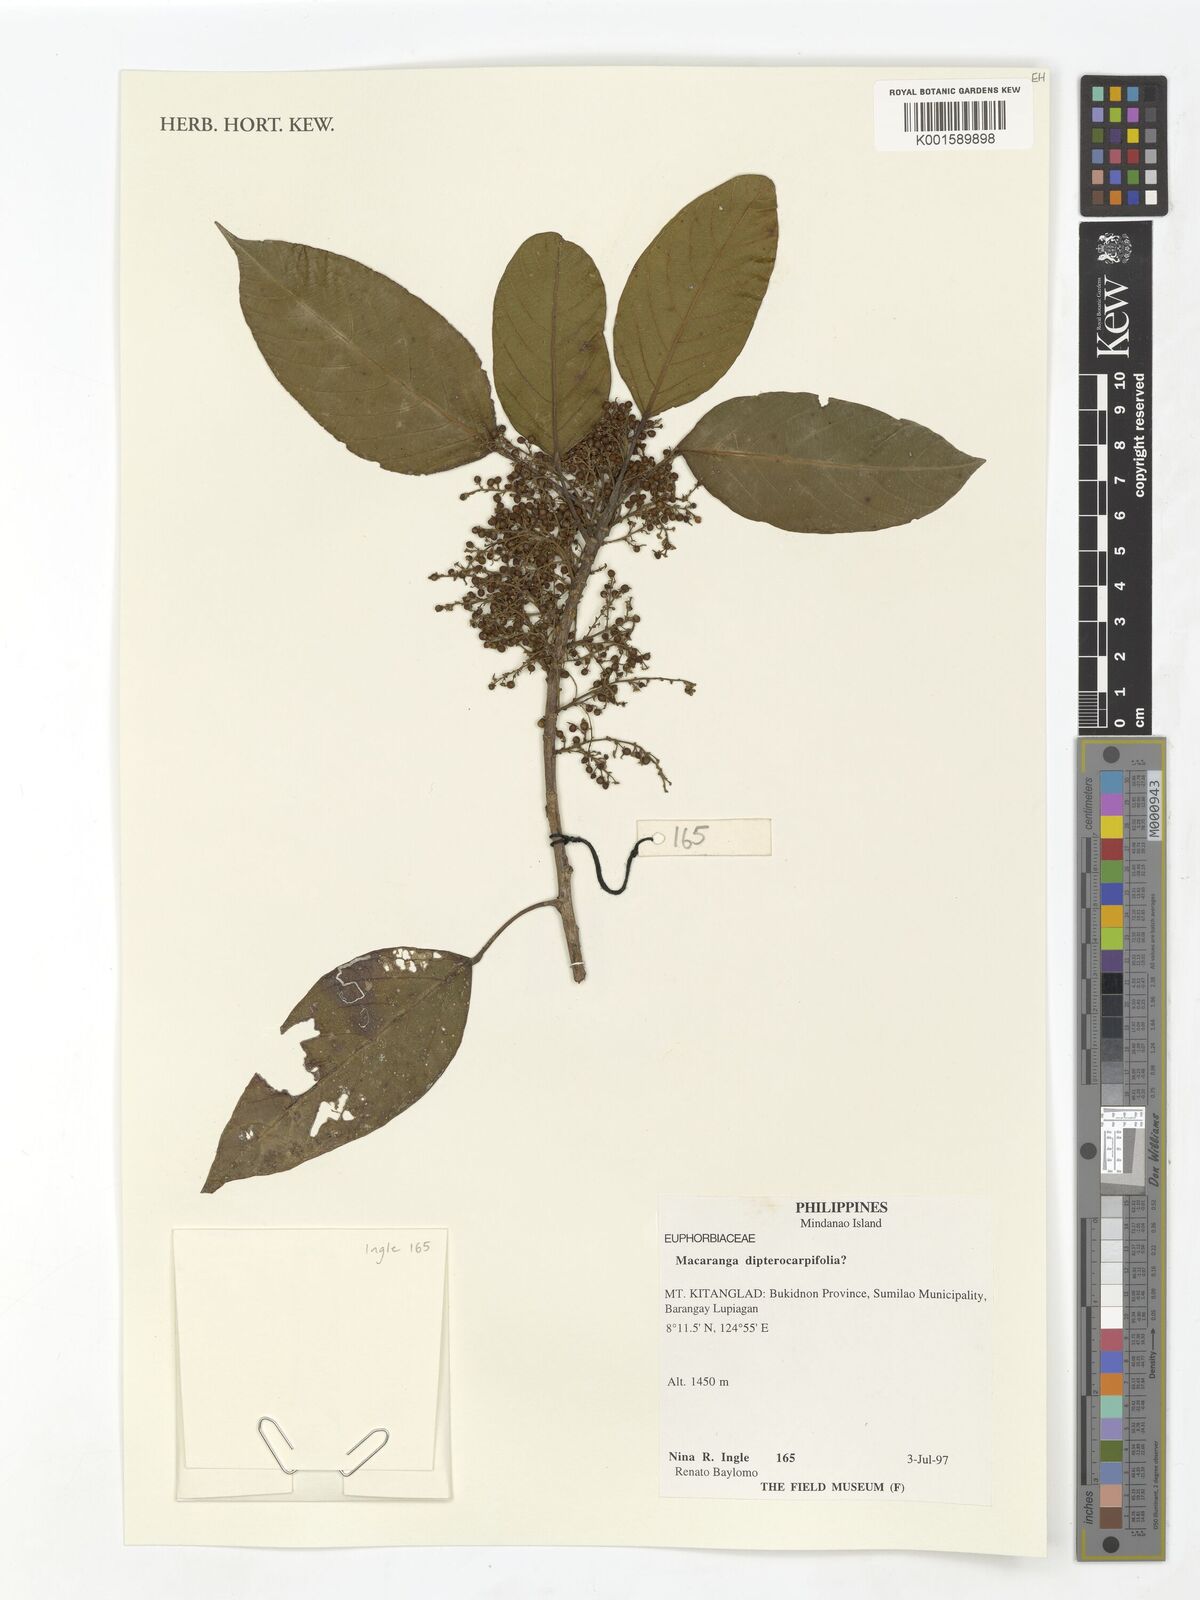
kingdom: Plantae
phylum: Tracheophyta
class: Magnoliopsida
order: Malpighiales
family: Euphorbiaceae
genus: Macaranga
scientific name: Macaranga sinensis
